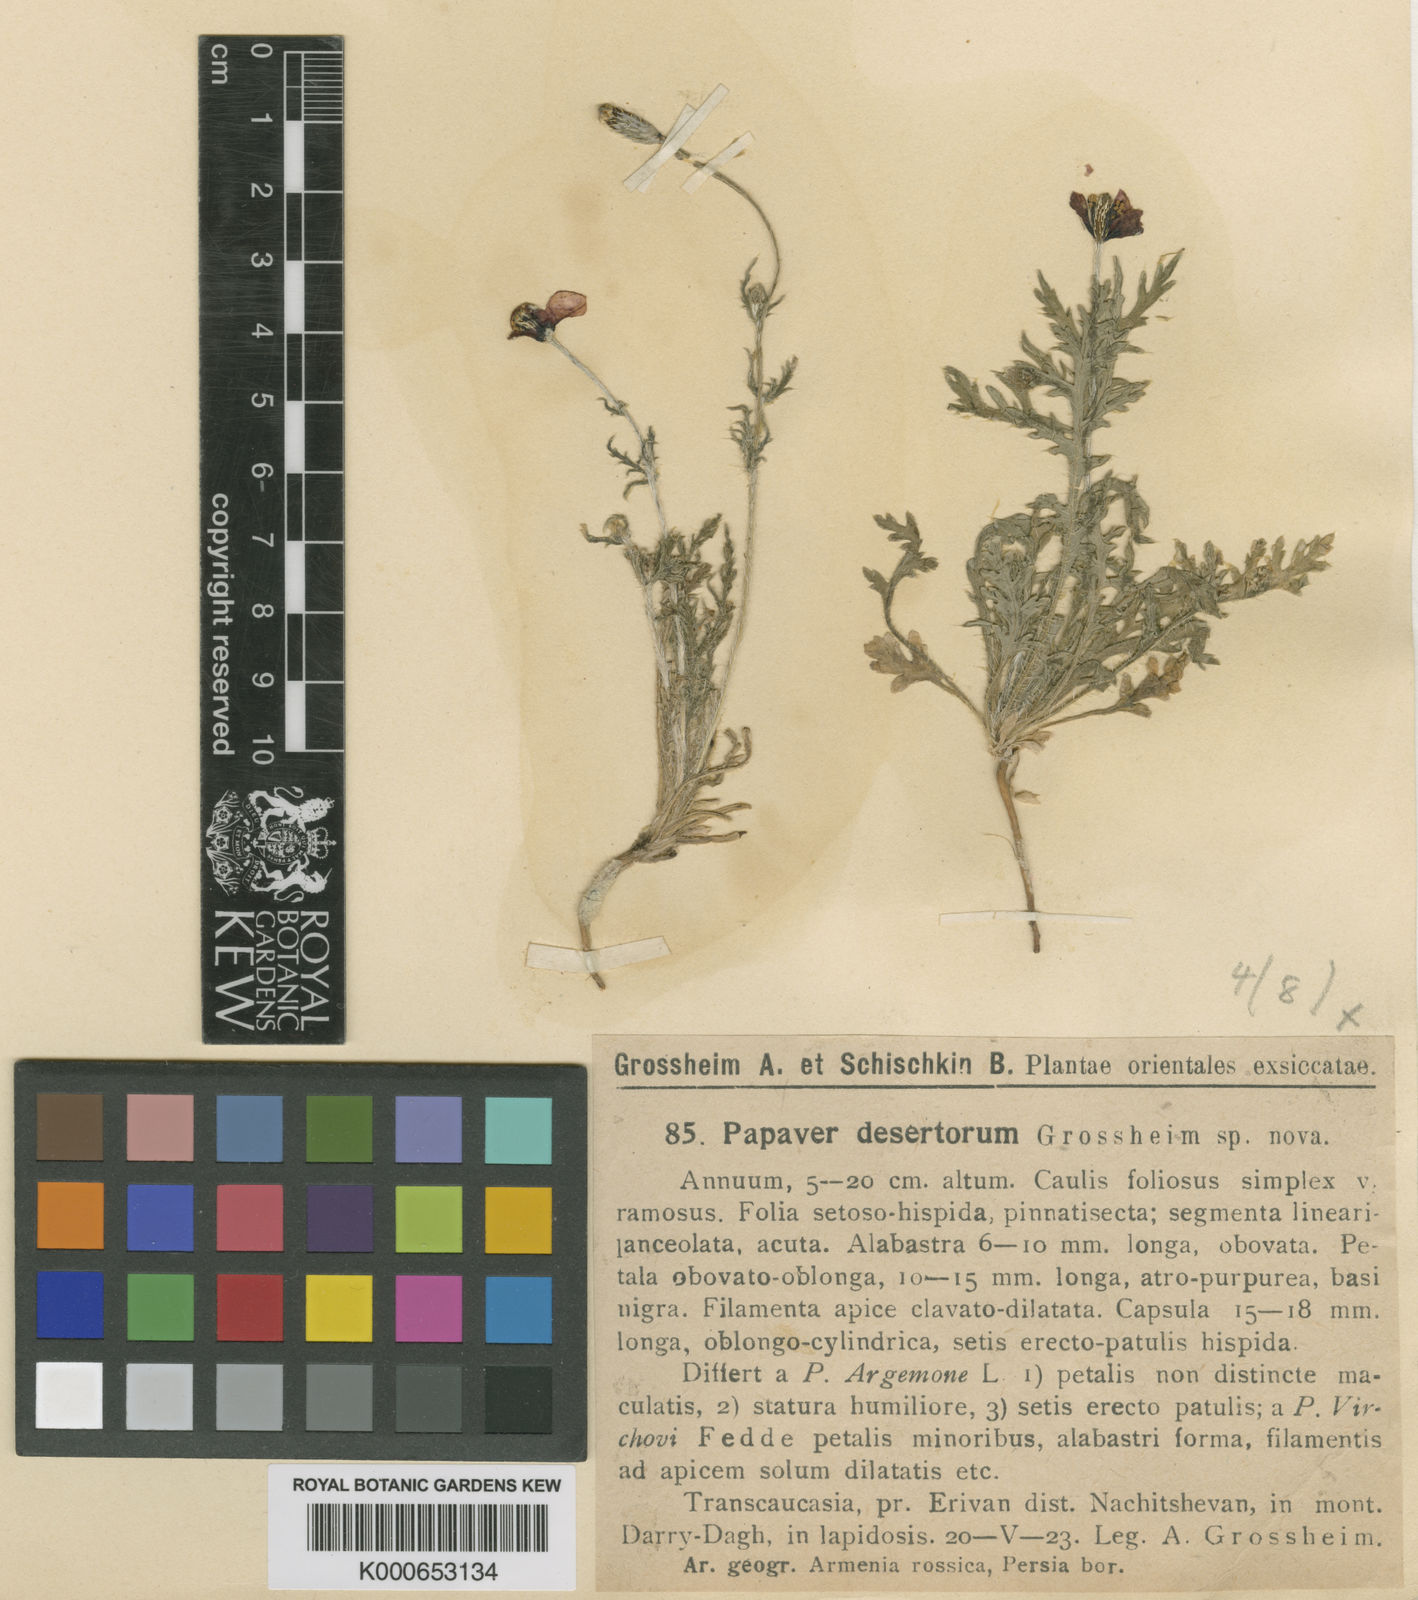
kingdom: Plantae
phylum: Tracheophyta
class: Magnoliopsida
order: Ranunculales
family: Papaveraceae
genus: Roemeria
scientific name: Roemeria minor
